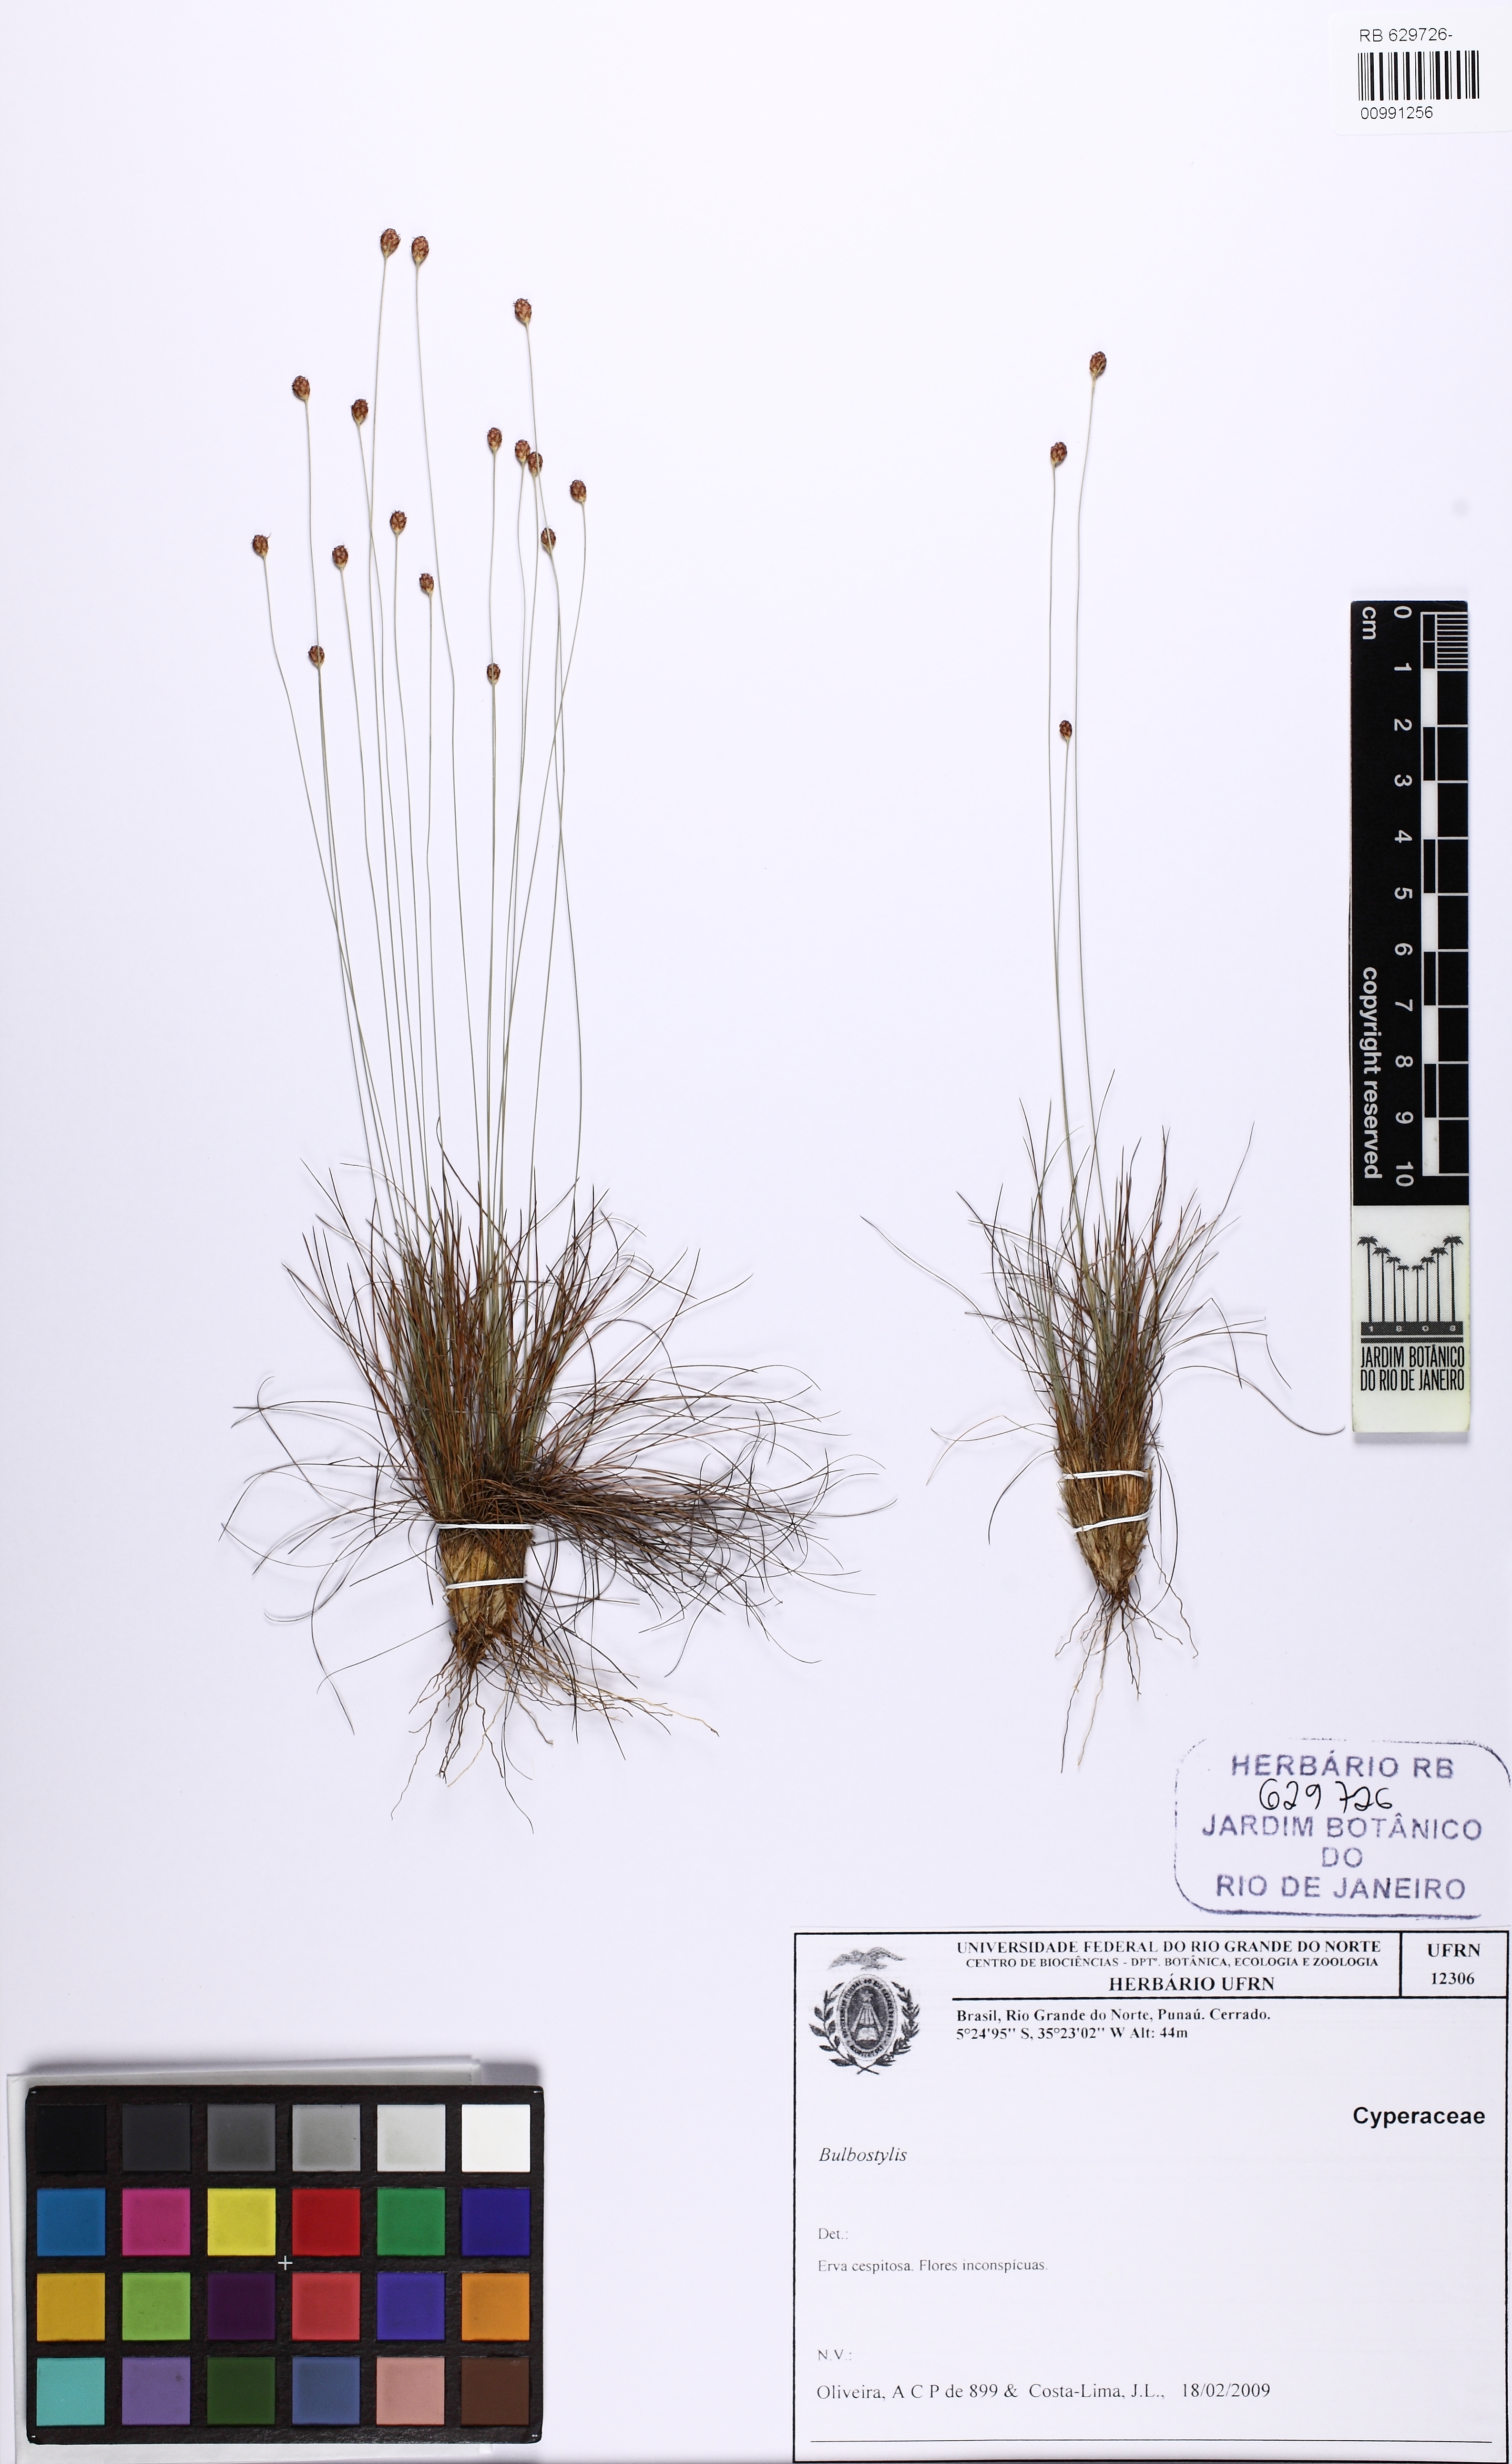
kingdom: Plantae
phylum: Tracheophyta
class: Liliopsida
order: Poales
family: Cyperaceae
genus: Bulbostylis
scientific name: Bulbostylis conifera
